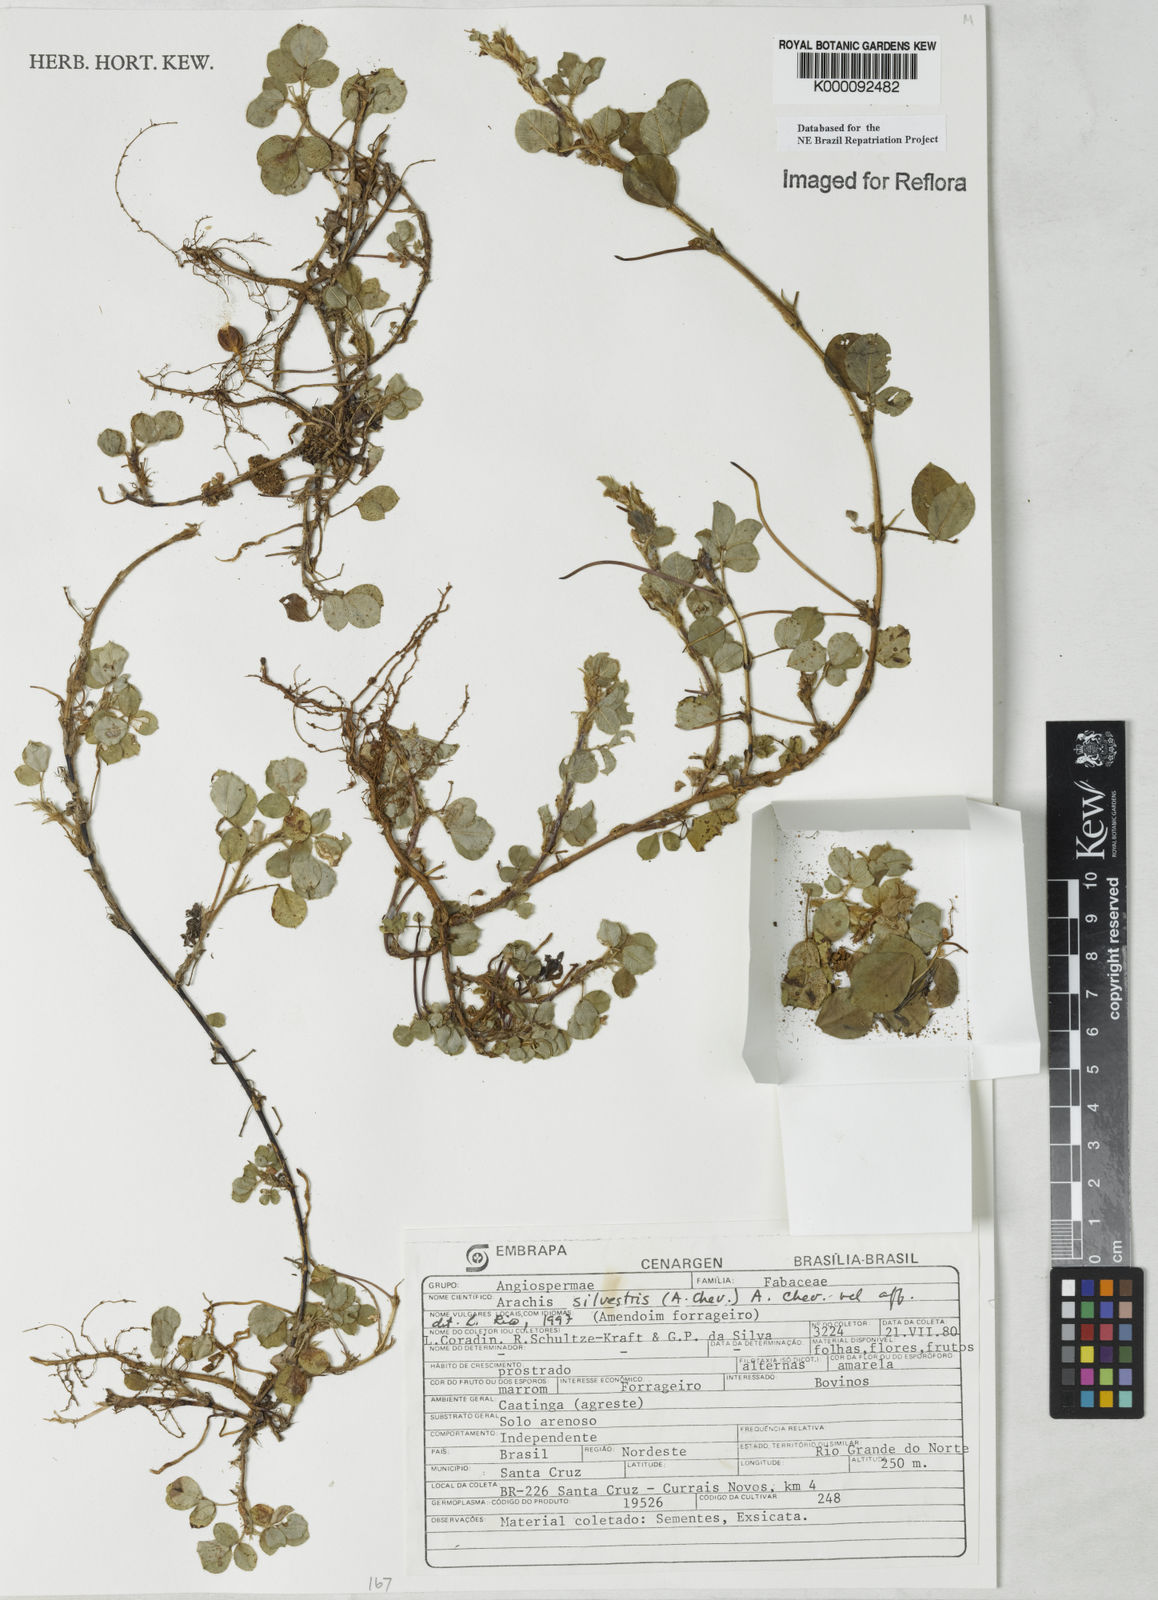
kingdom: Plantae
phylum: Tracheophyta
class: Magnoliopsida
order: Fabales
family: Fabaceae
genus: Arachis
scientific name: Arachis
